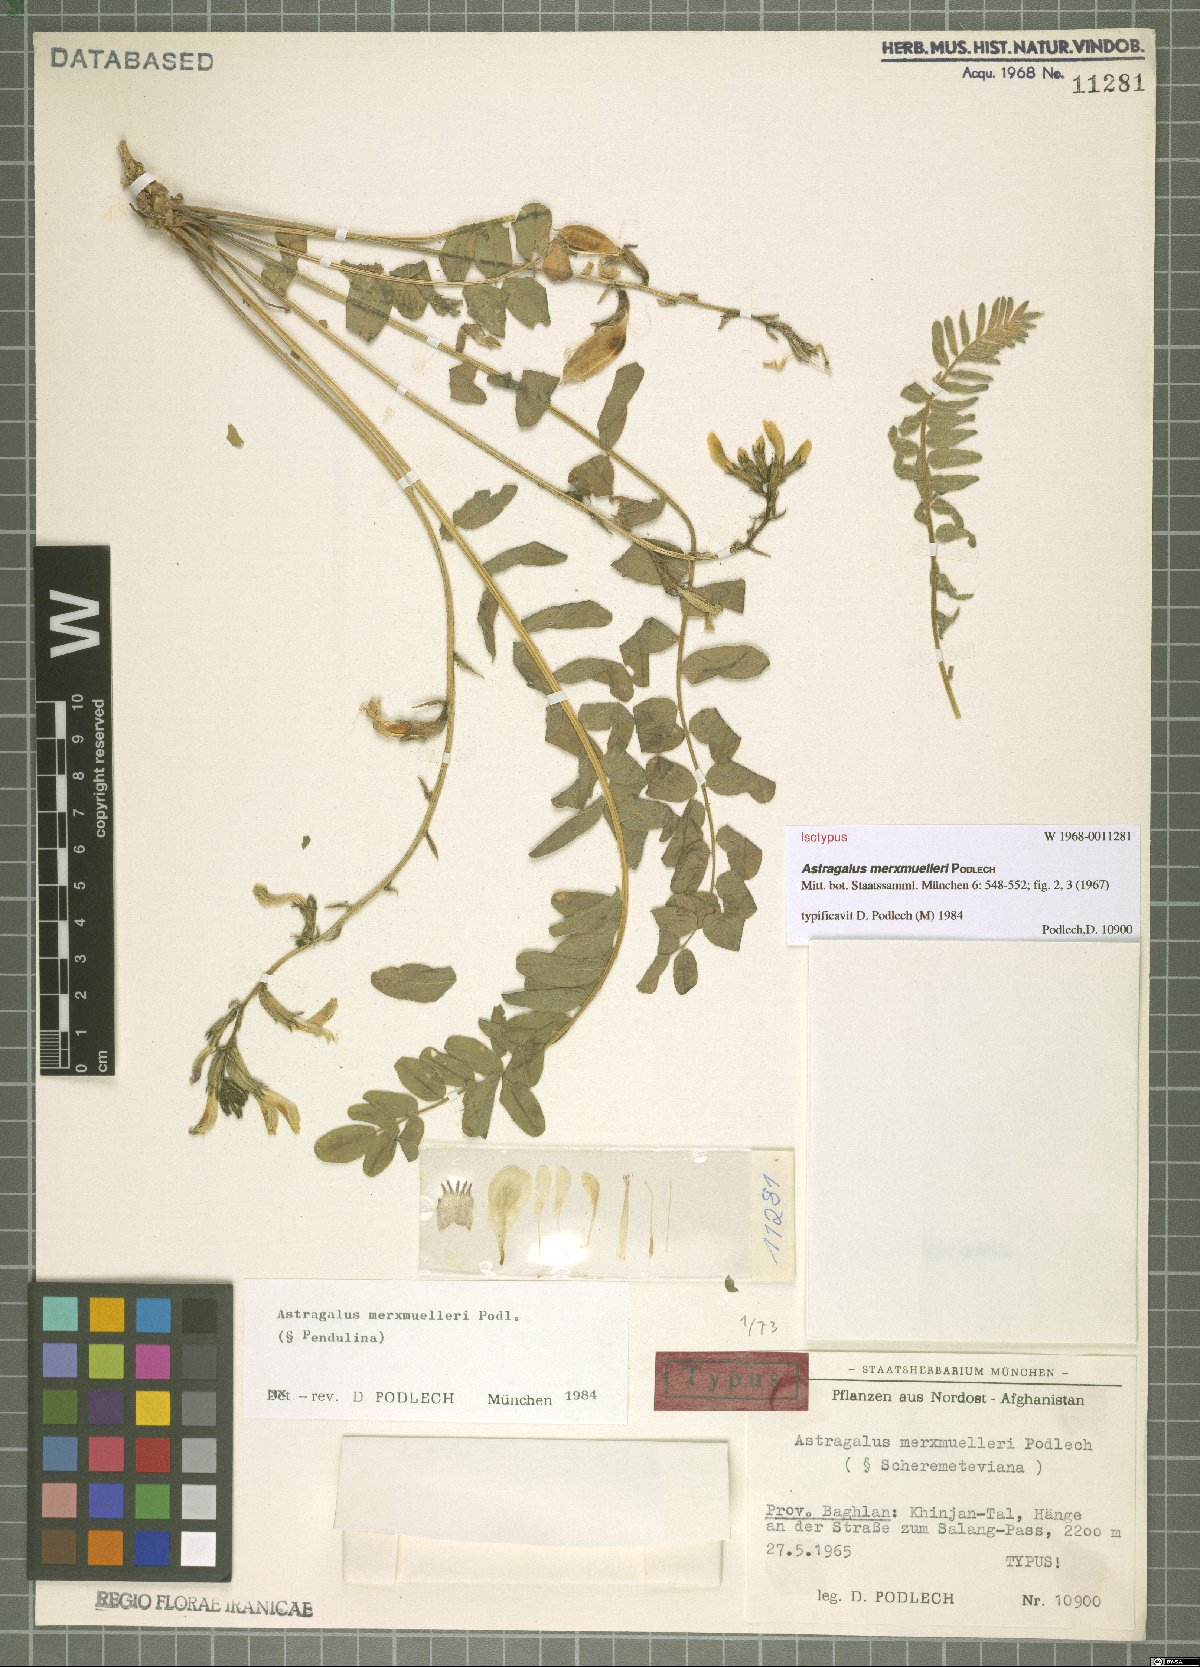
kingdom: Plantae
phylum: Tracheophyta
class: Magnoliopsida
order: Fabales
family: Fabaceae
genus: Astragalus
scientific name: Astragalus merxmuelleri
